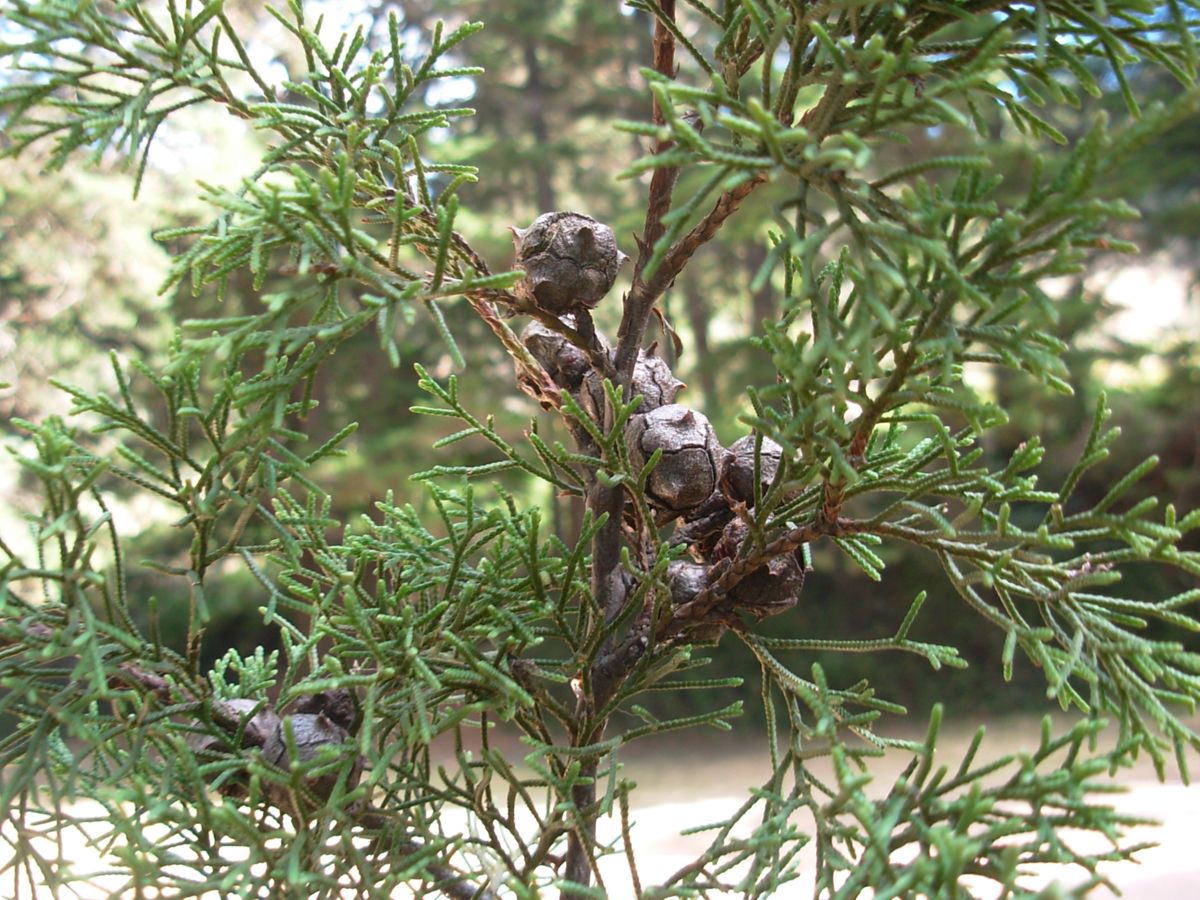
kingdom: Plantae
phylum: Tracheophyta
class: Pinopsida
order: Pinales
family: Cupressaceae
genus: Cupressus
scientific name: Cupressus lusitanica
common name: Mexican cypress
